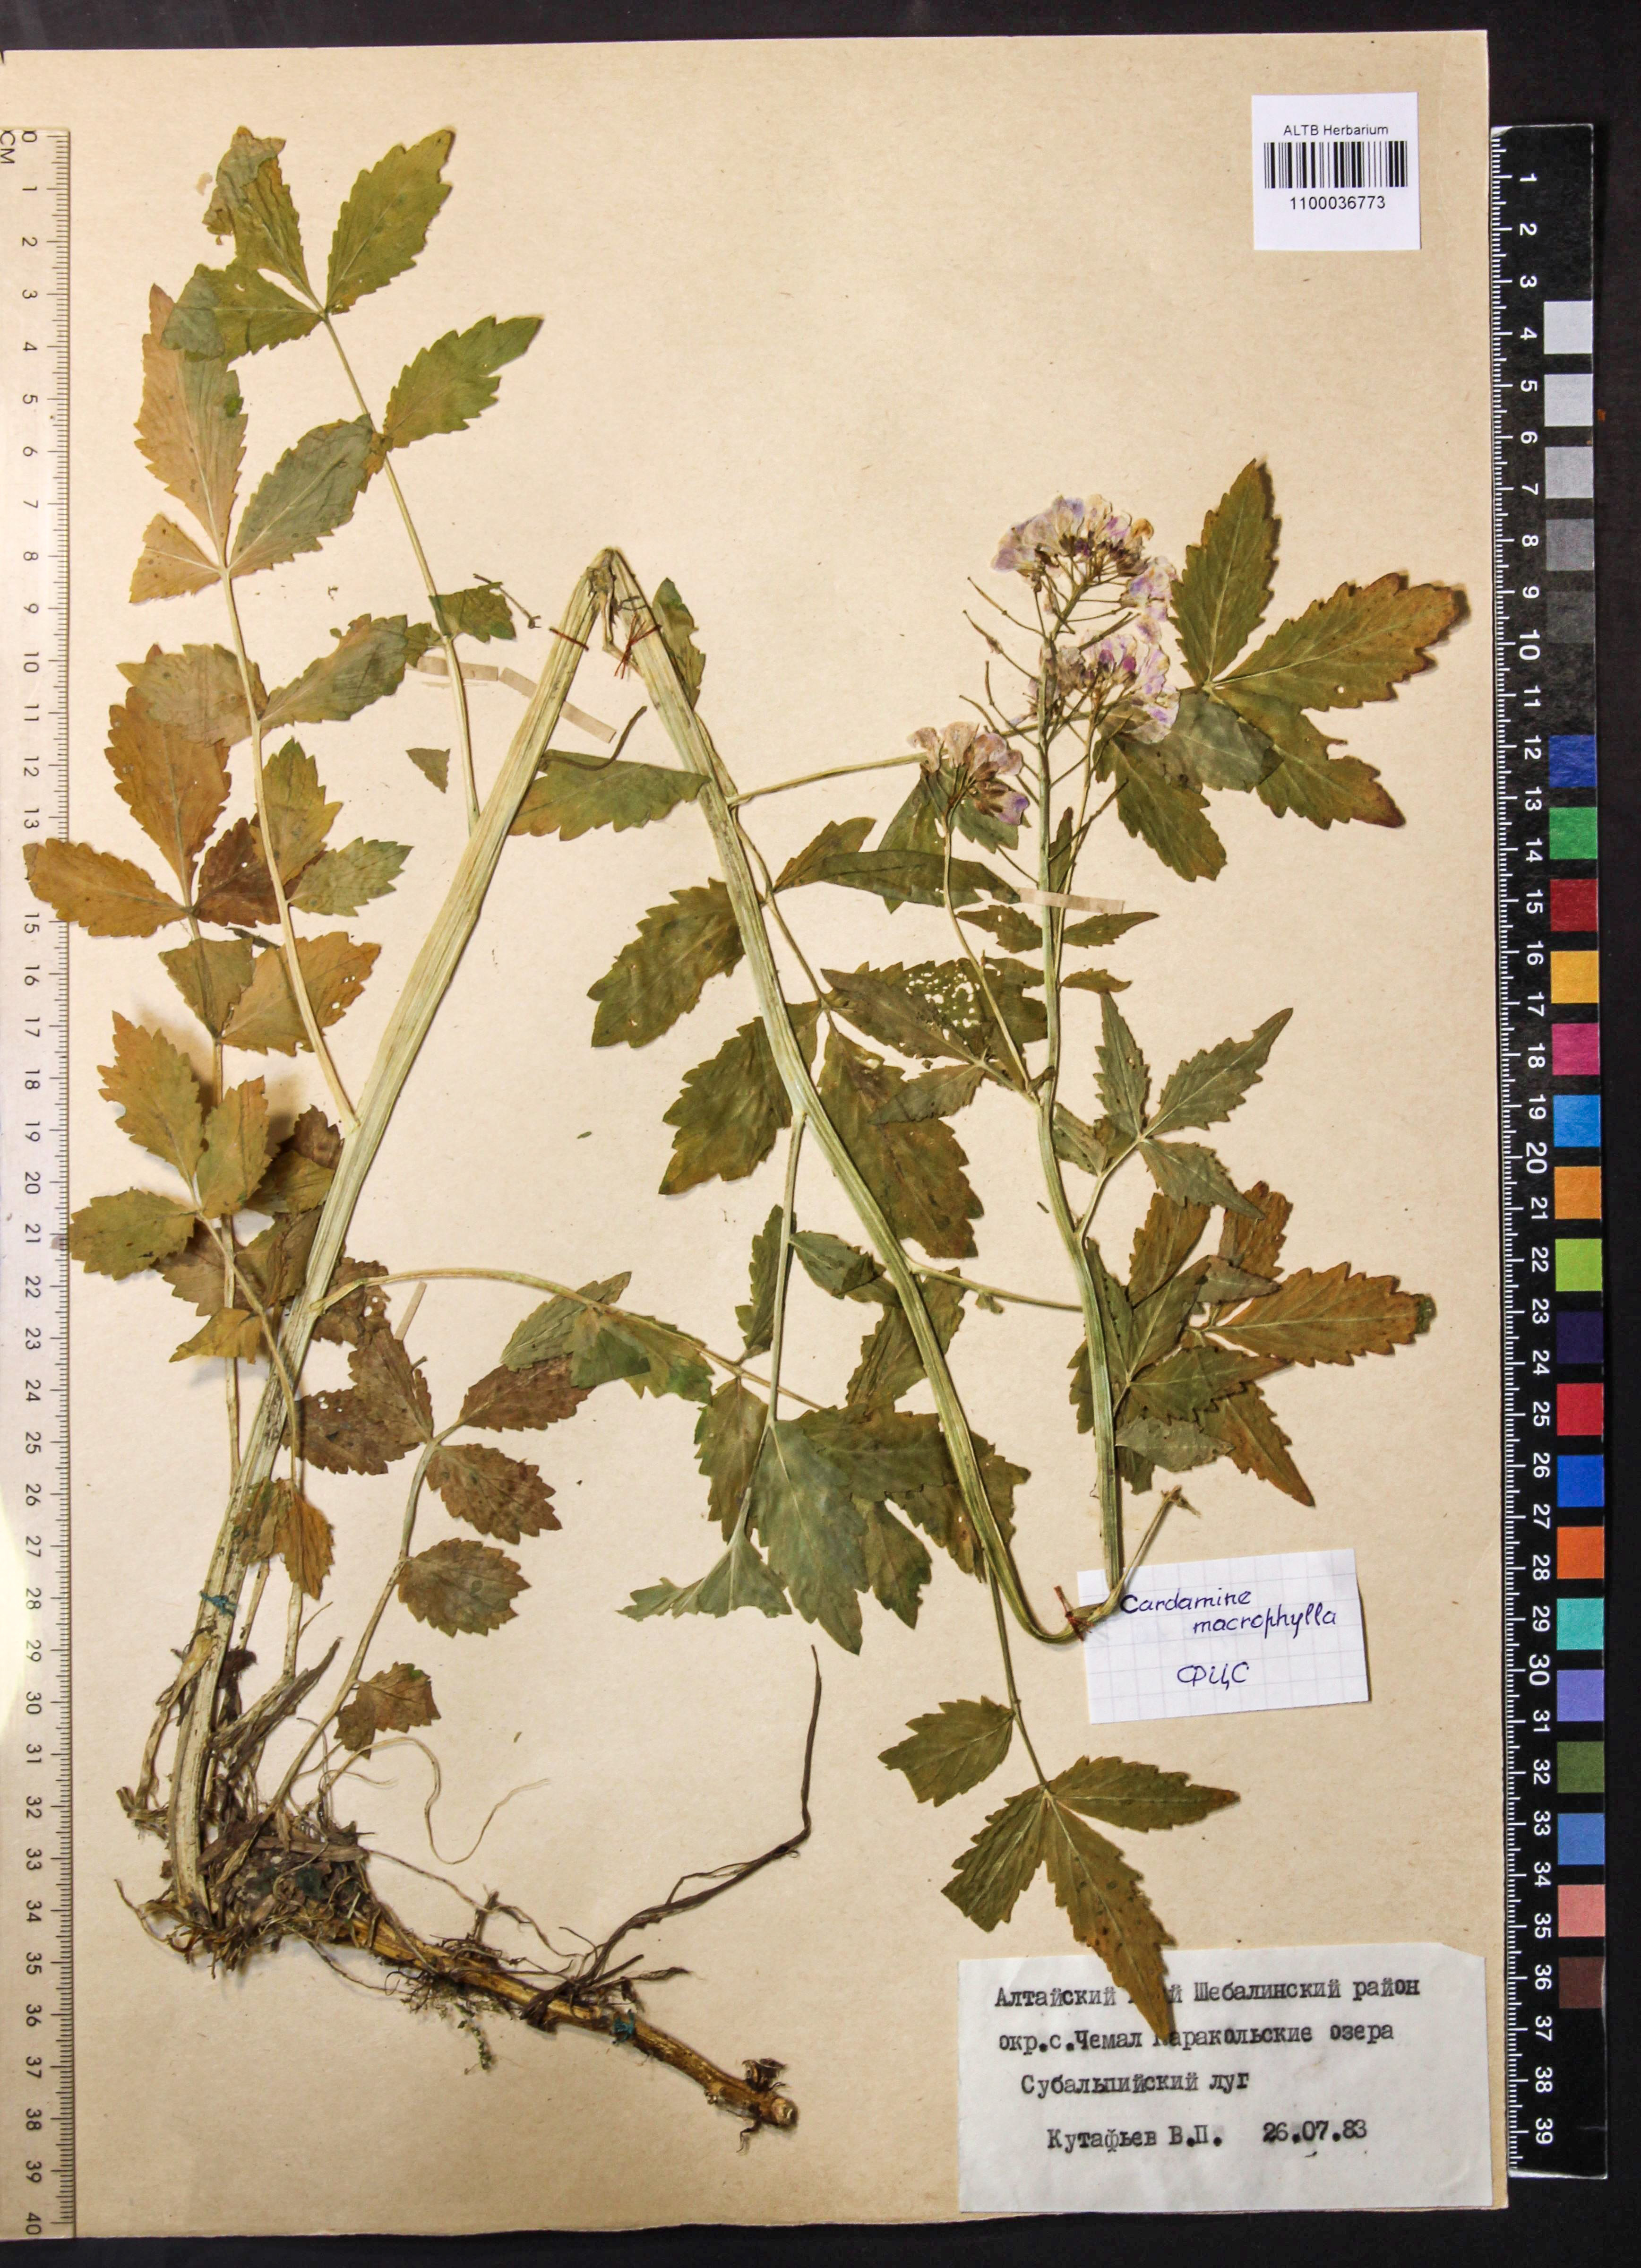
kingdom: Plantae
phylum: Tracheophyta
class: Magnoliopsida
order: Brassicales
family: Brassicaceae
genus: Cardamine
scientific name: Cardamine macrophylla
